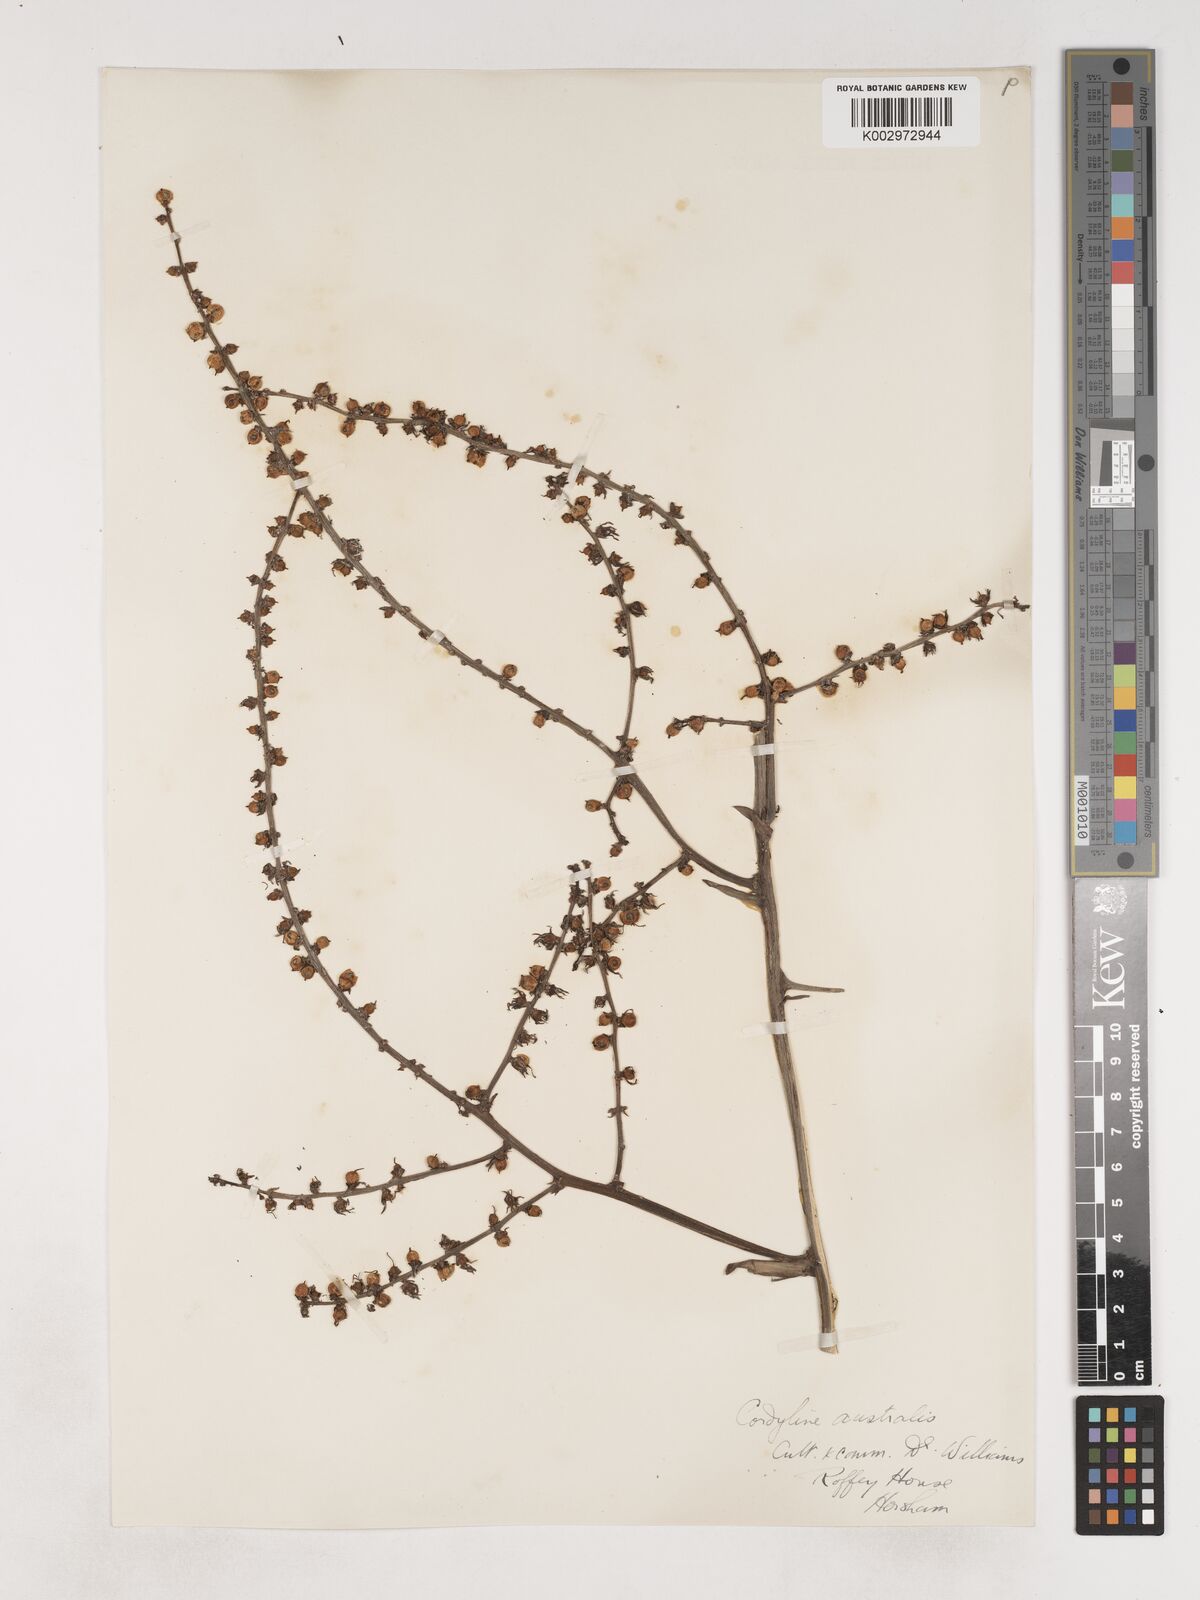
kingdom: Plantae
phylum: Tracheophyta
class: Liliopsida
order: Asparagales
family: Asparagaceae
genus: Cordyline
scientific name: Cordyline
